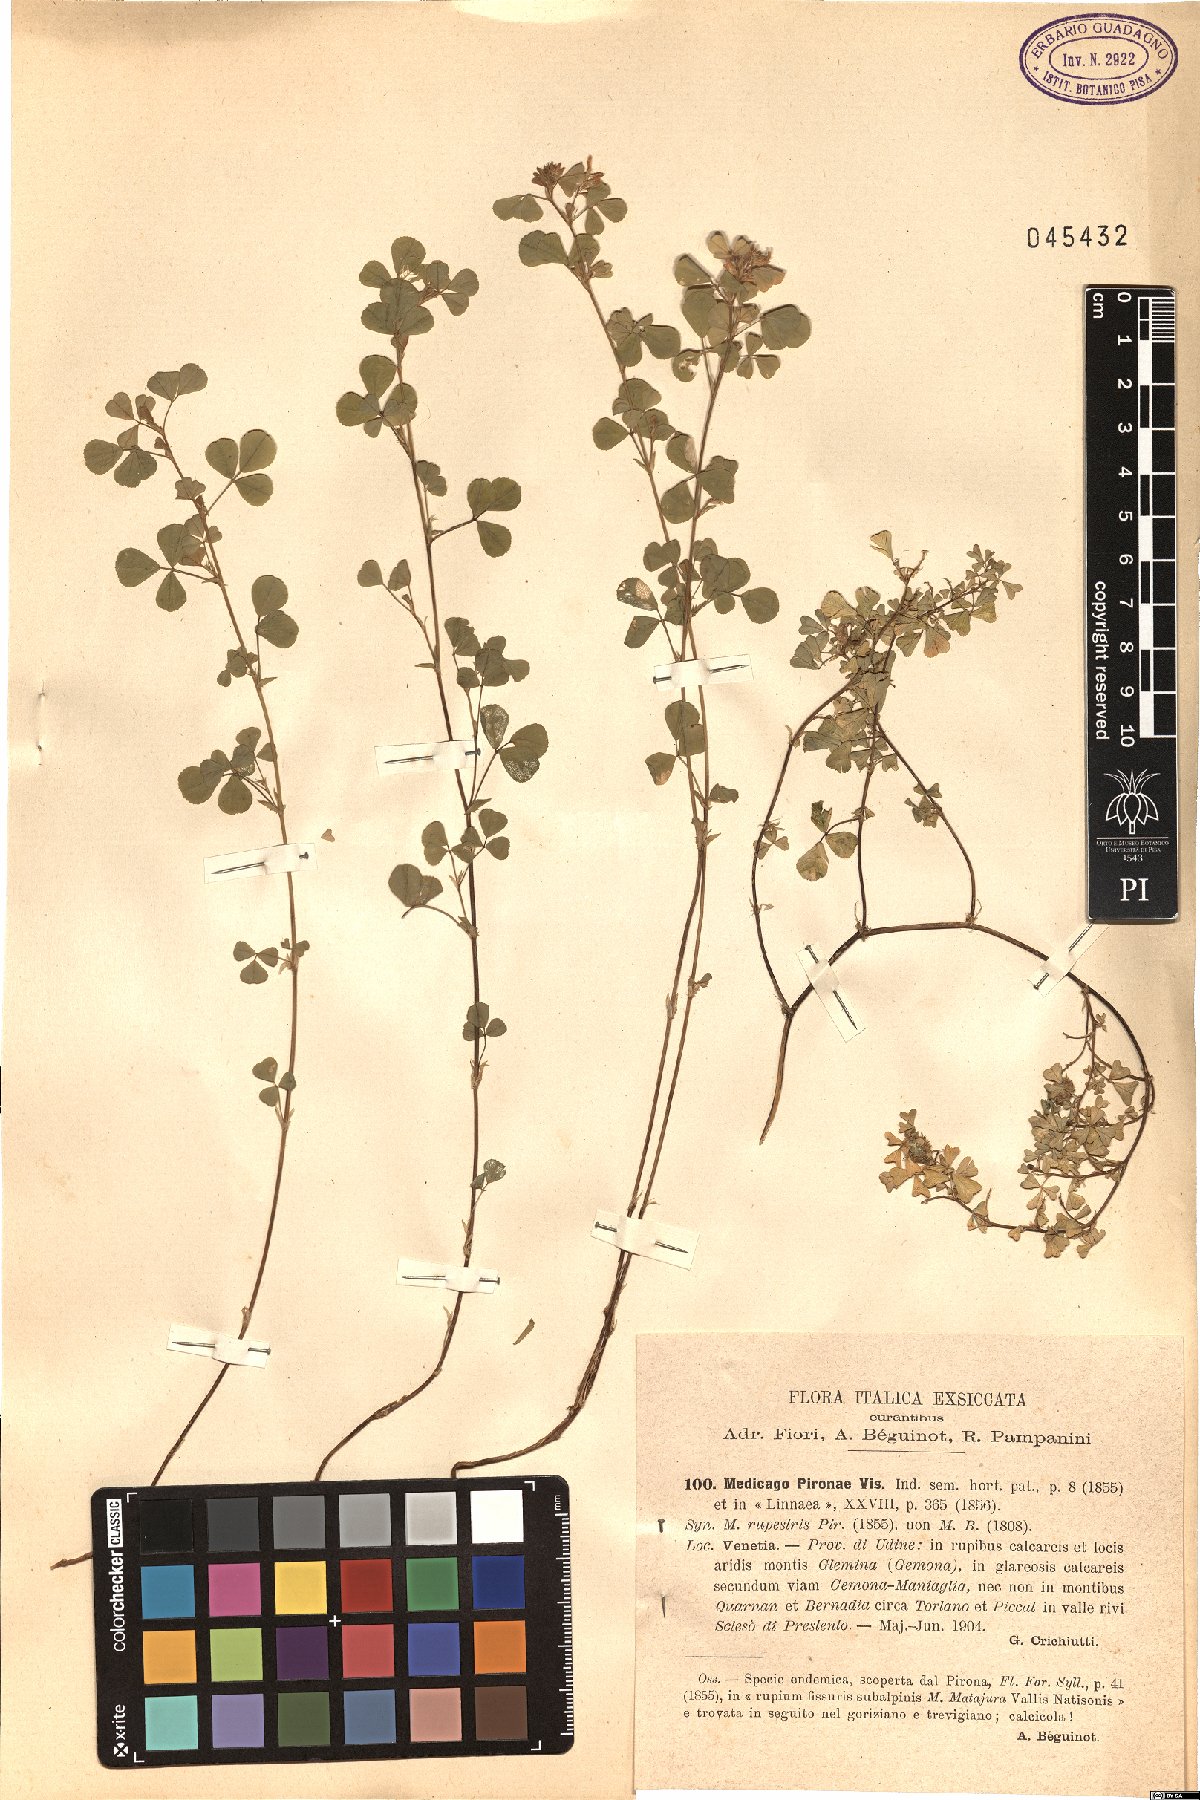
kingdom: Plantae
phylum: Tracheophyta
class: Magnoliopsida
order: Fabales
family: Fabaceae
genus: Medicago
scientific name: Medicago pironae
